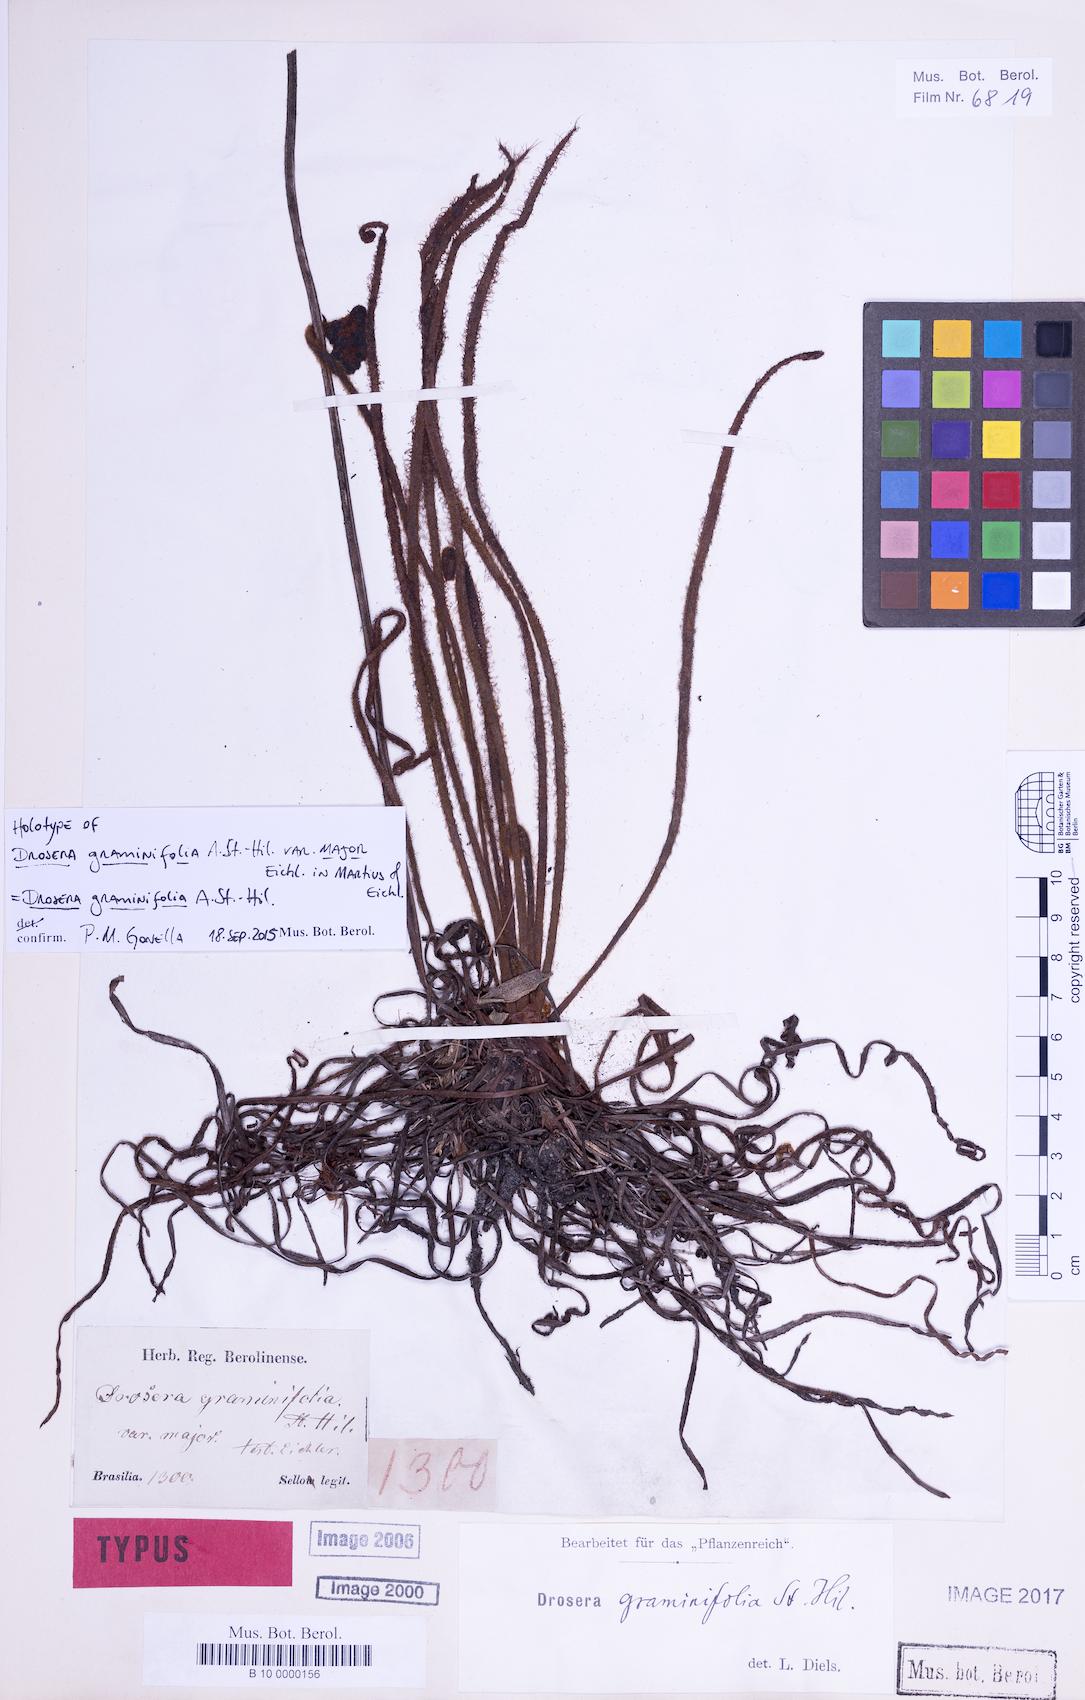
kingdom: Plantae
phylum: Tracheophyta
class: Magnoliopsida
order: Caryophyllales
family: Droseraceae
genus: Drosera
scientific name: Drosera graminifolia
